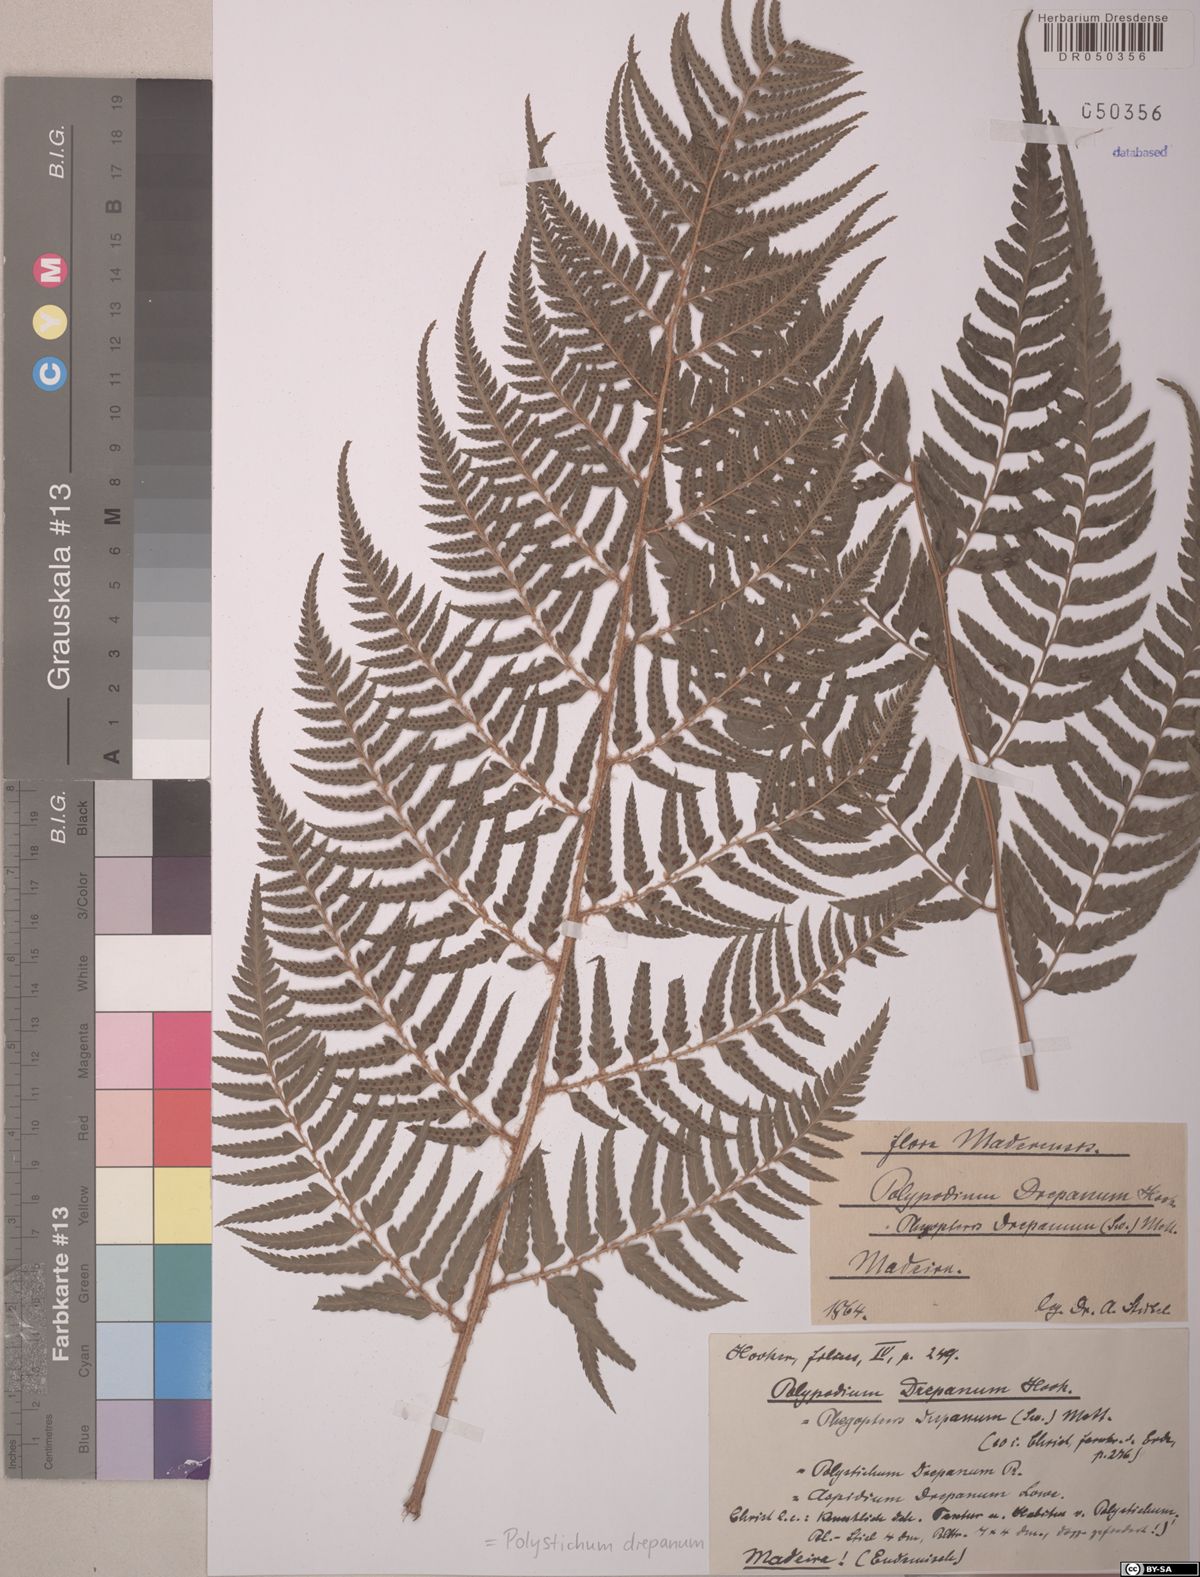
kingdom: Plantae
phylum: Tracheophyta
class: Polypodiopsida
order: Polypodiales
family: Dryopteridaceae
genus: Polystichum
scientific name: Polystichum drepanum
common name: Madeira shield-fern
